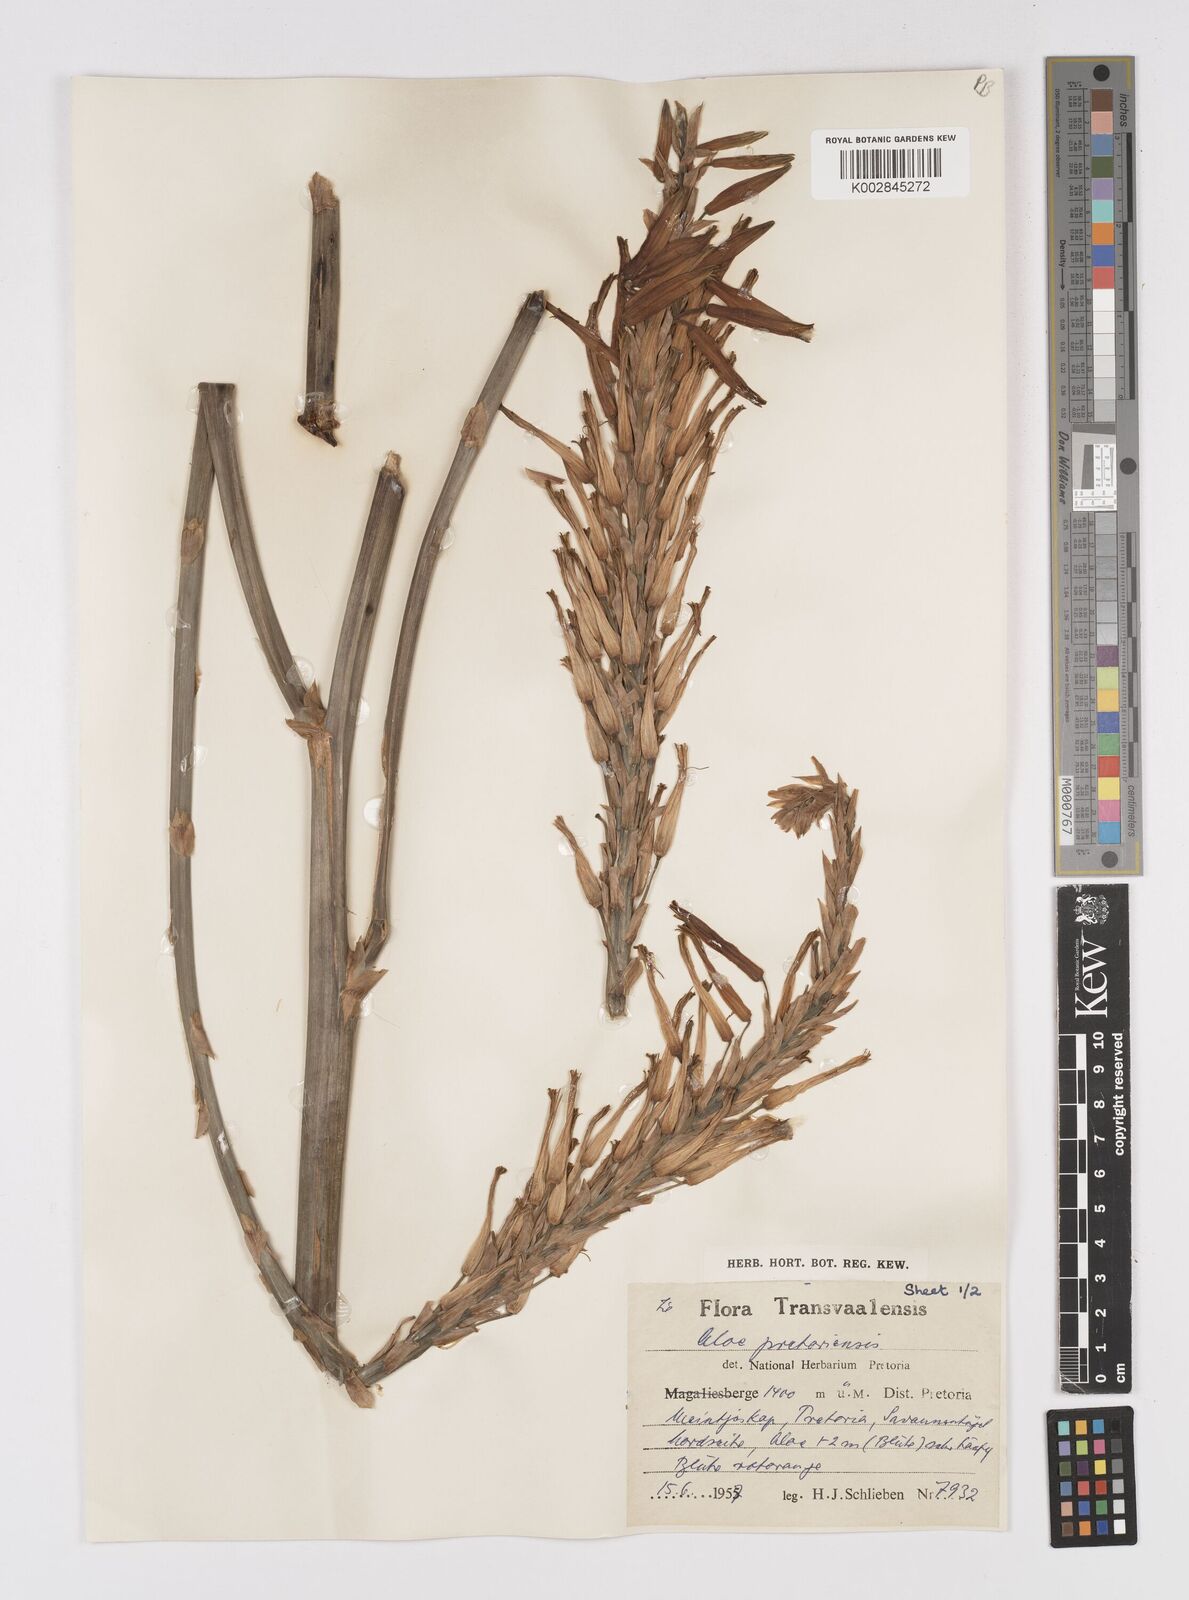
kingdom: Plantae
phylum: Tracheophyta
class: Liliopsida
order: Asparagales
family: Asphodelaceae
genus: Aloe
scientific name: Aloe pretoriensis
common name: Pretoria aloe
